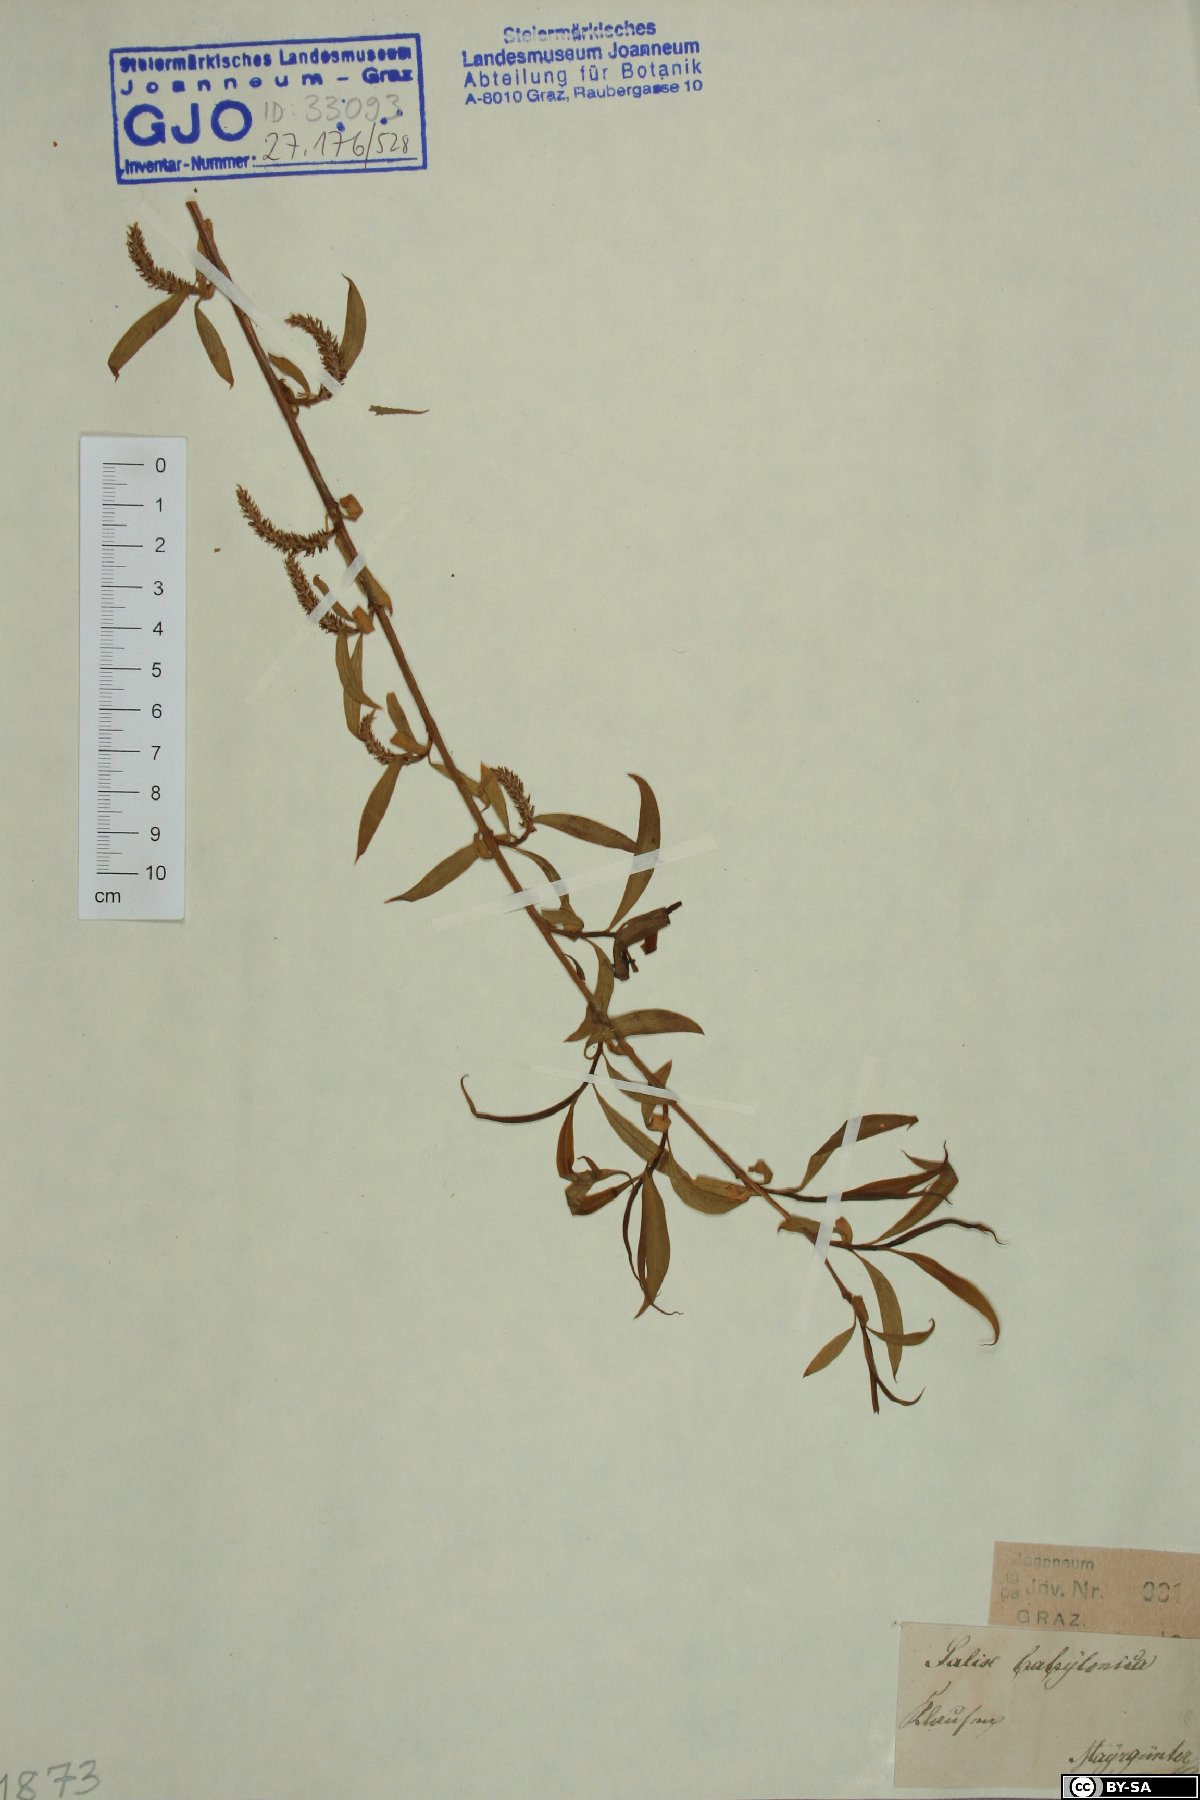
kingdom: Plantae
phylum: Tracheophyta
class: Magnoliopsida
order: Malpighiales
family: Salicaceae
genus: Salix
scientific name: Salix babylonica
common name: Weeping willow
